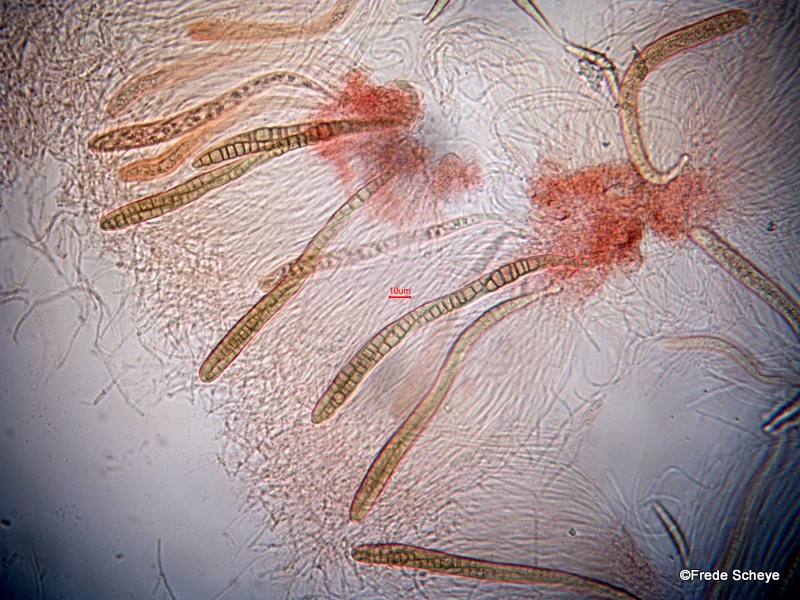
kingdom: Fungi
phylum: Ascomycota
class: Dothideomycetes
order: Pleosporales
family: Leptosphaeriaceae
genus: Leptosphaeria
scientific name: Leptosphaeria acuta
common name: spids kulkegle
